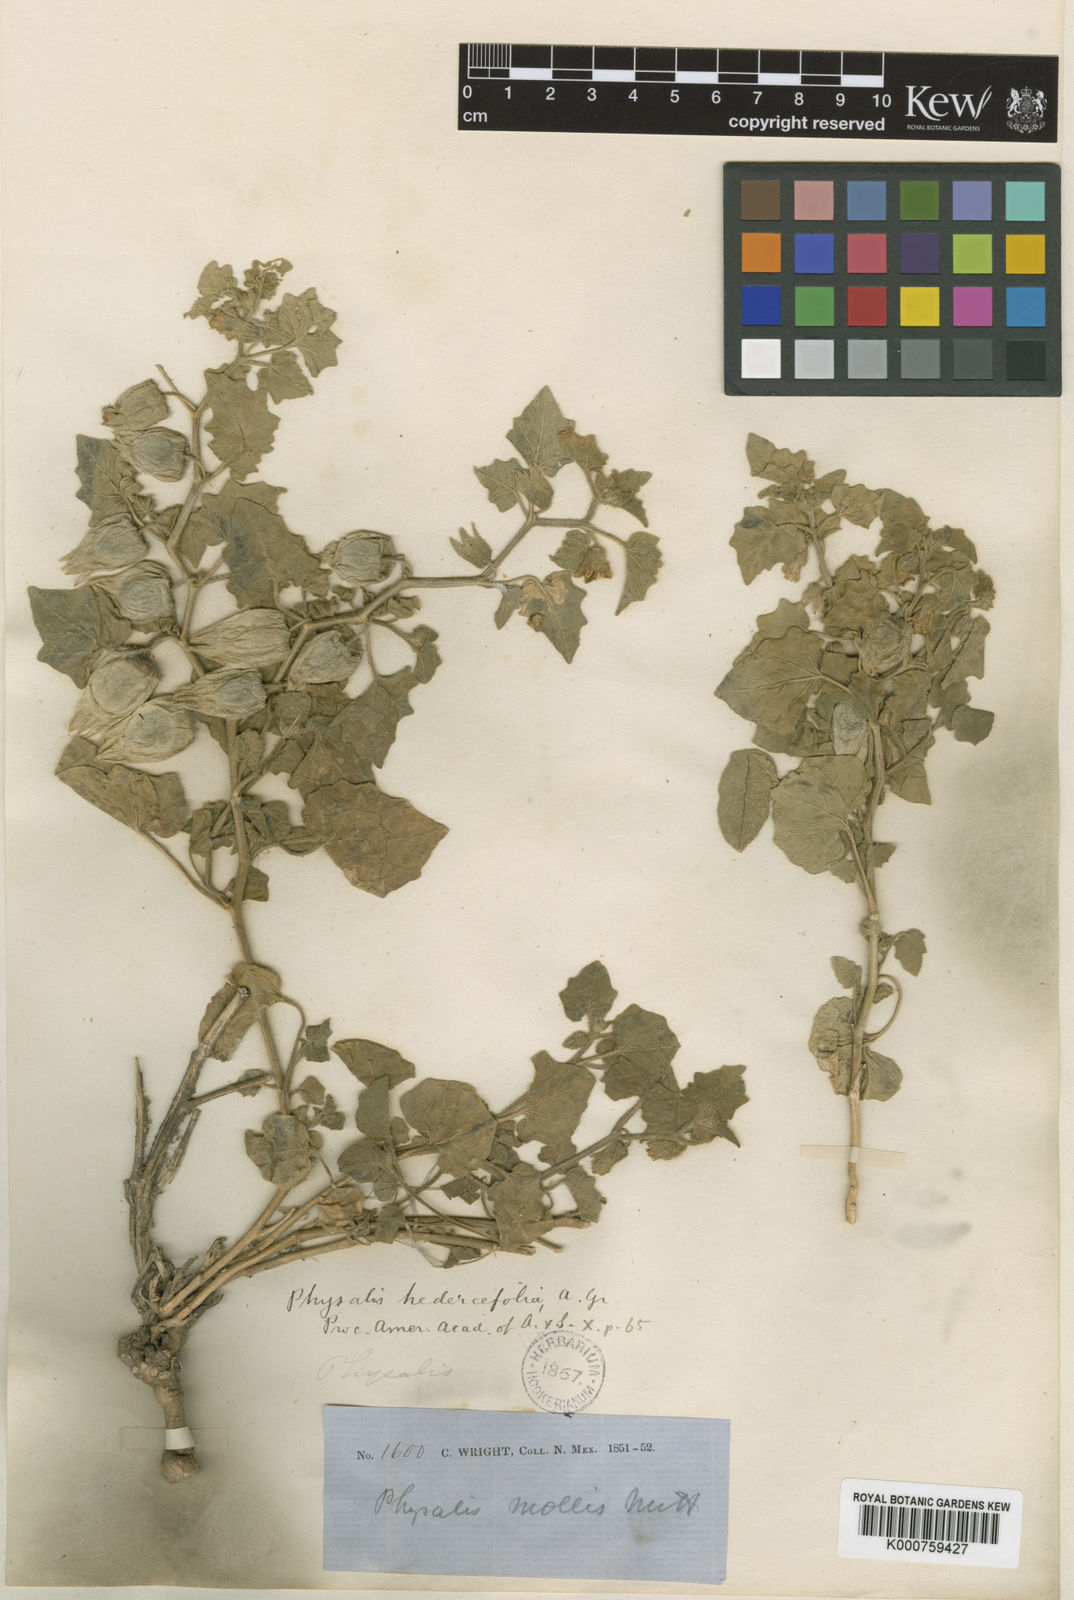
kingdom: Plantae
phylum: Tracheophyta
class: Magnoliopsida
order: Solanales
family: Solanaceae
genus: Physalis
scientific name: Physalis hederifolia
